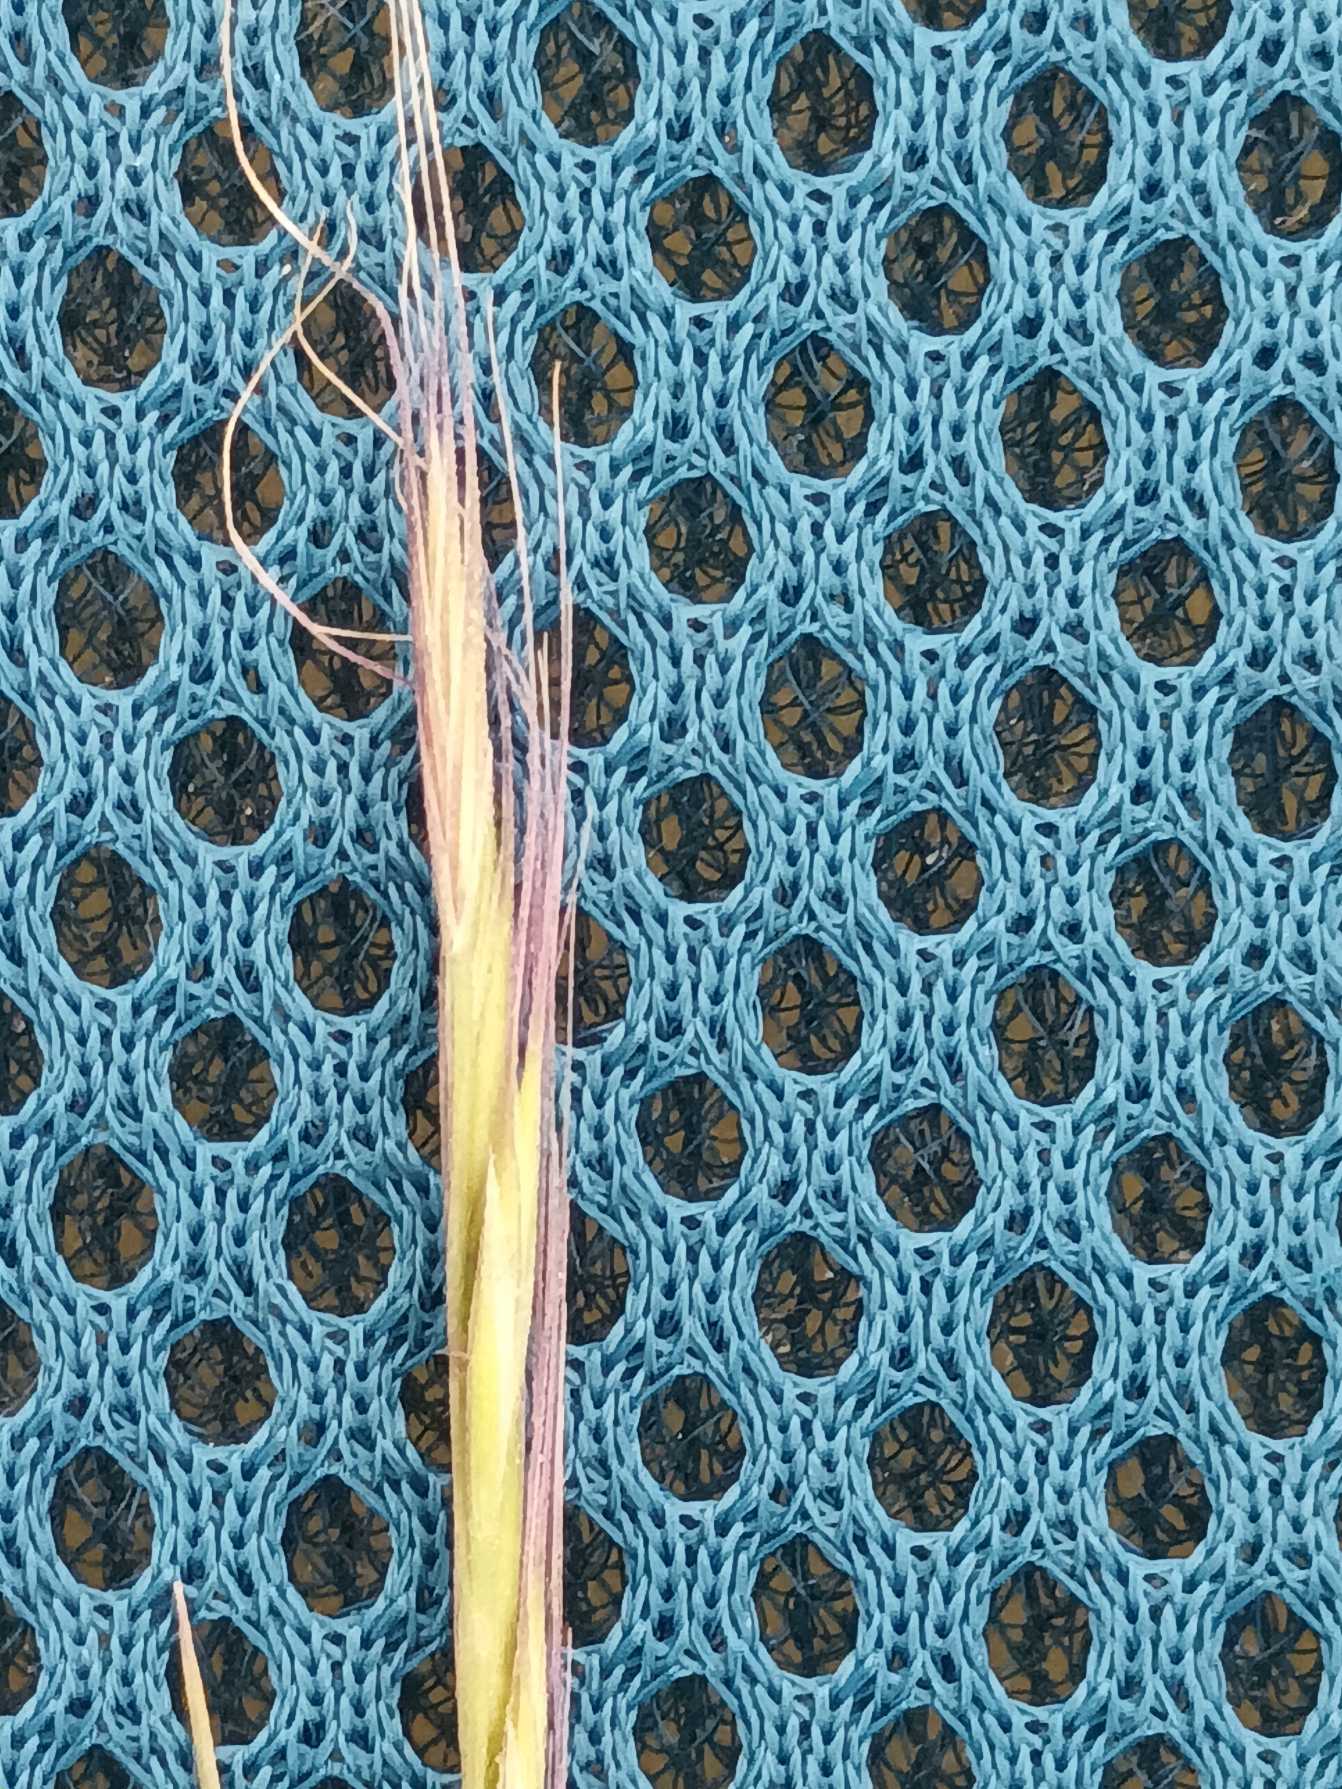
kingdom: Plantae
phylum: Tracheophyta
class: Liliopsida
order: Poales
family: Poaceae
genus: Festuca
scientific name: Festuca myuros
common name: Stor væselhale
